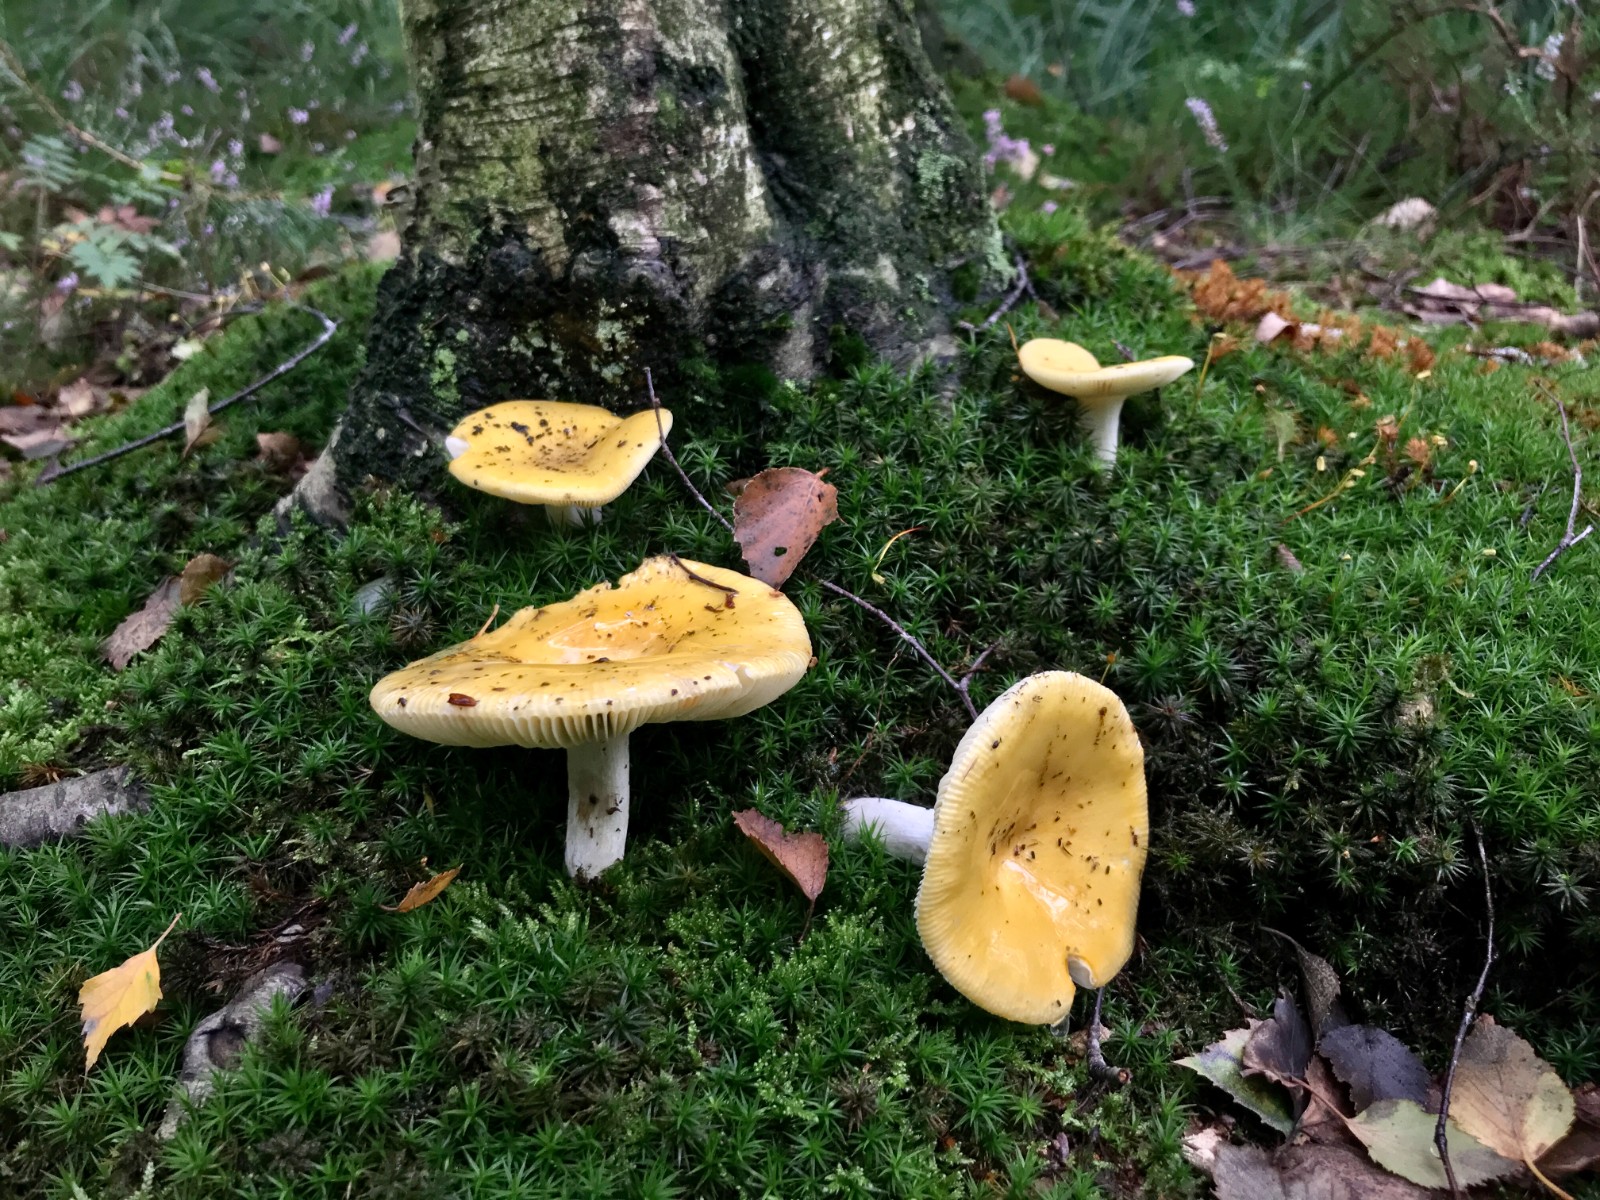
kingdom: Fungi
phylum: Basidiomycota
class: Agaricomycetes
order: Russulales
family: Russulaceae
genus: Russula
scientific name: Russula claroflava
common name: birke-skørhat
